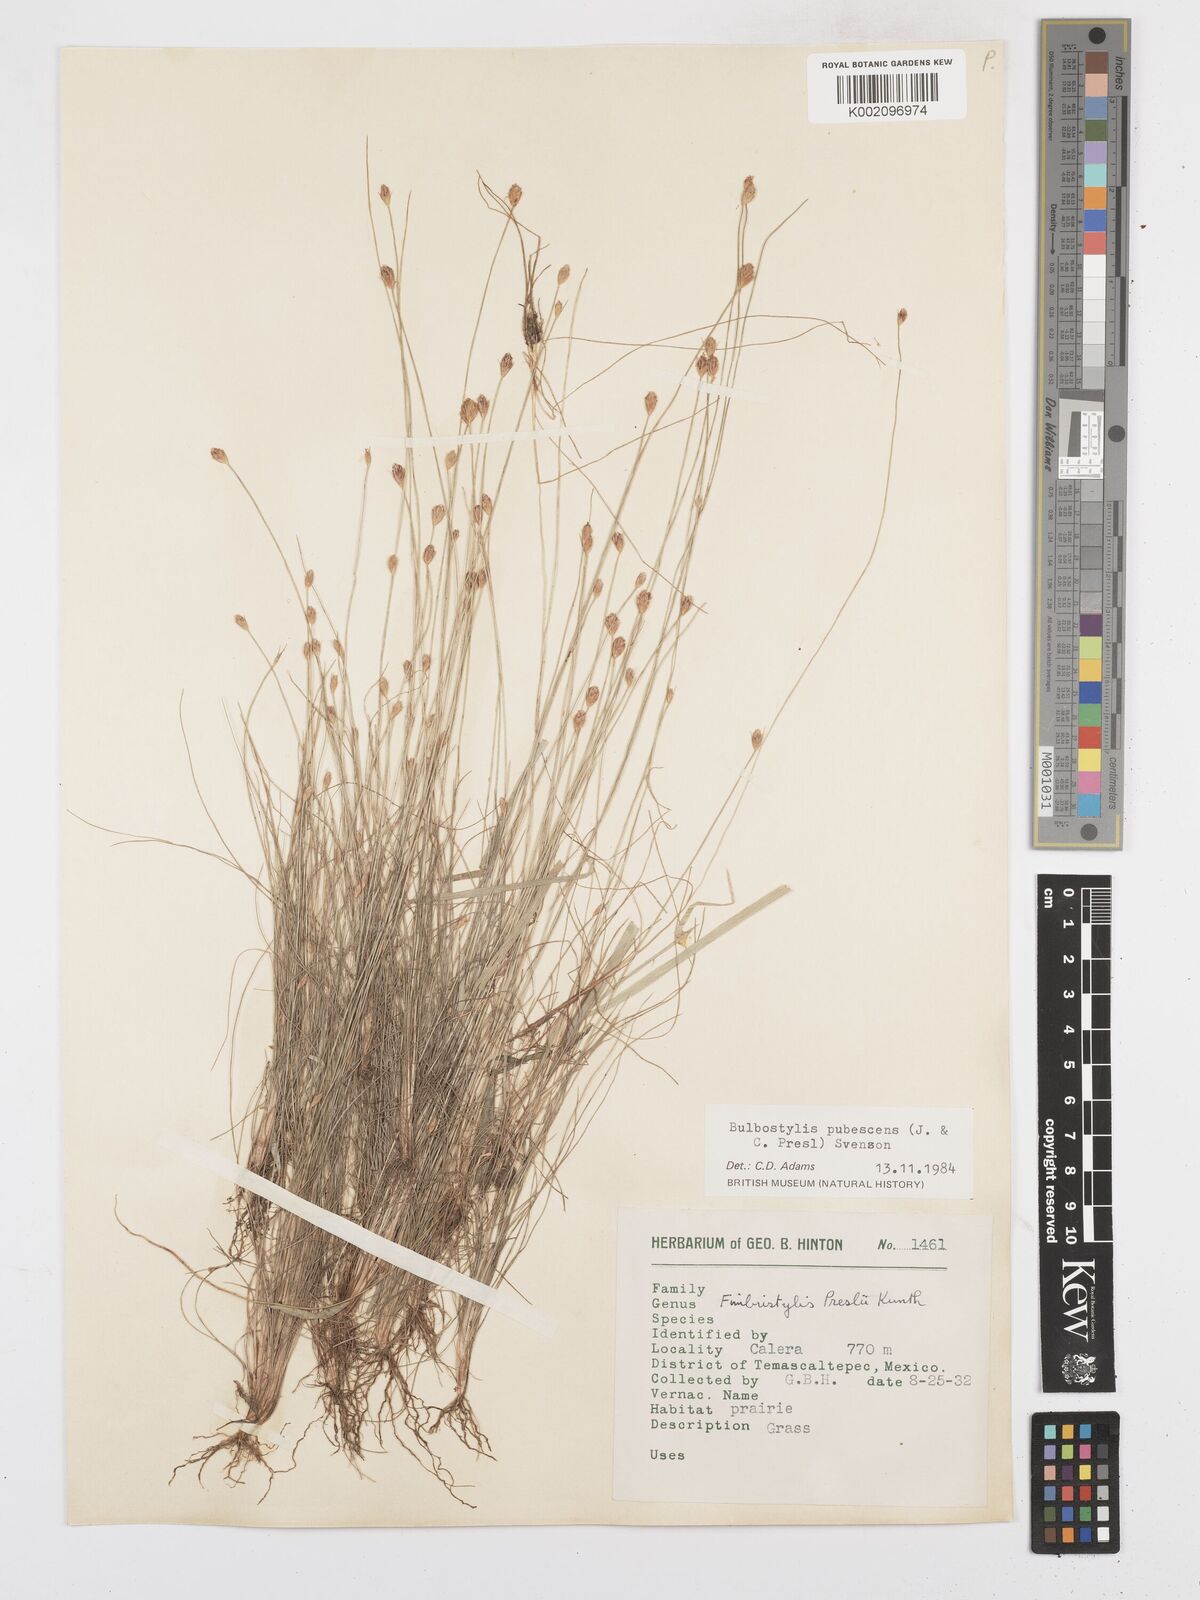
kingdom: Plantae
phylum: Tracheophyta
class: Liliopsida
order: Poales
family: Cyperaceae
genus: Bulbostylis
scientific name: Bulbostylis pubescens
